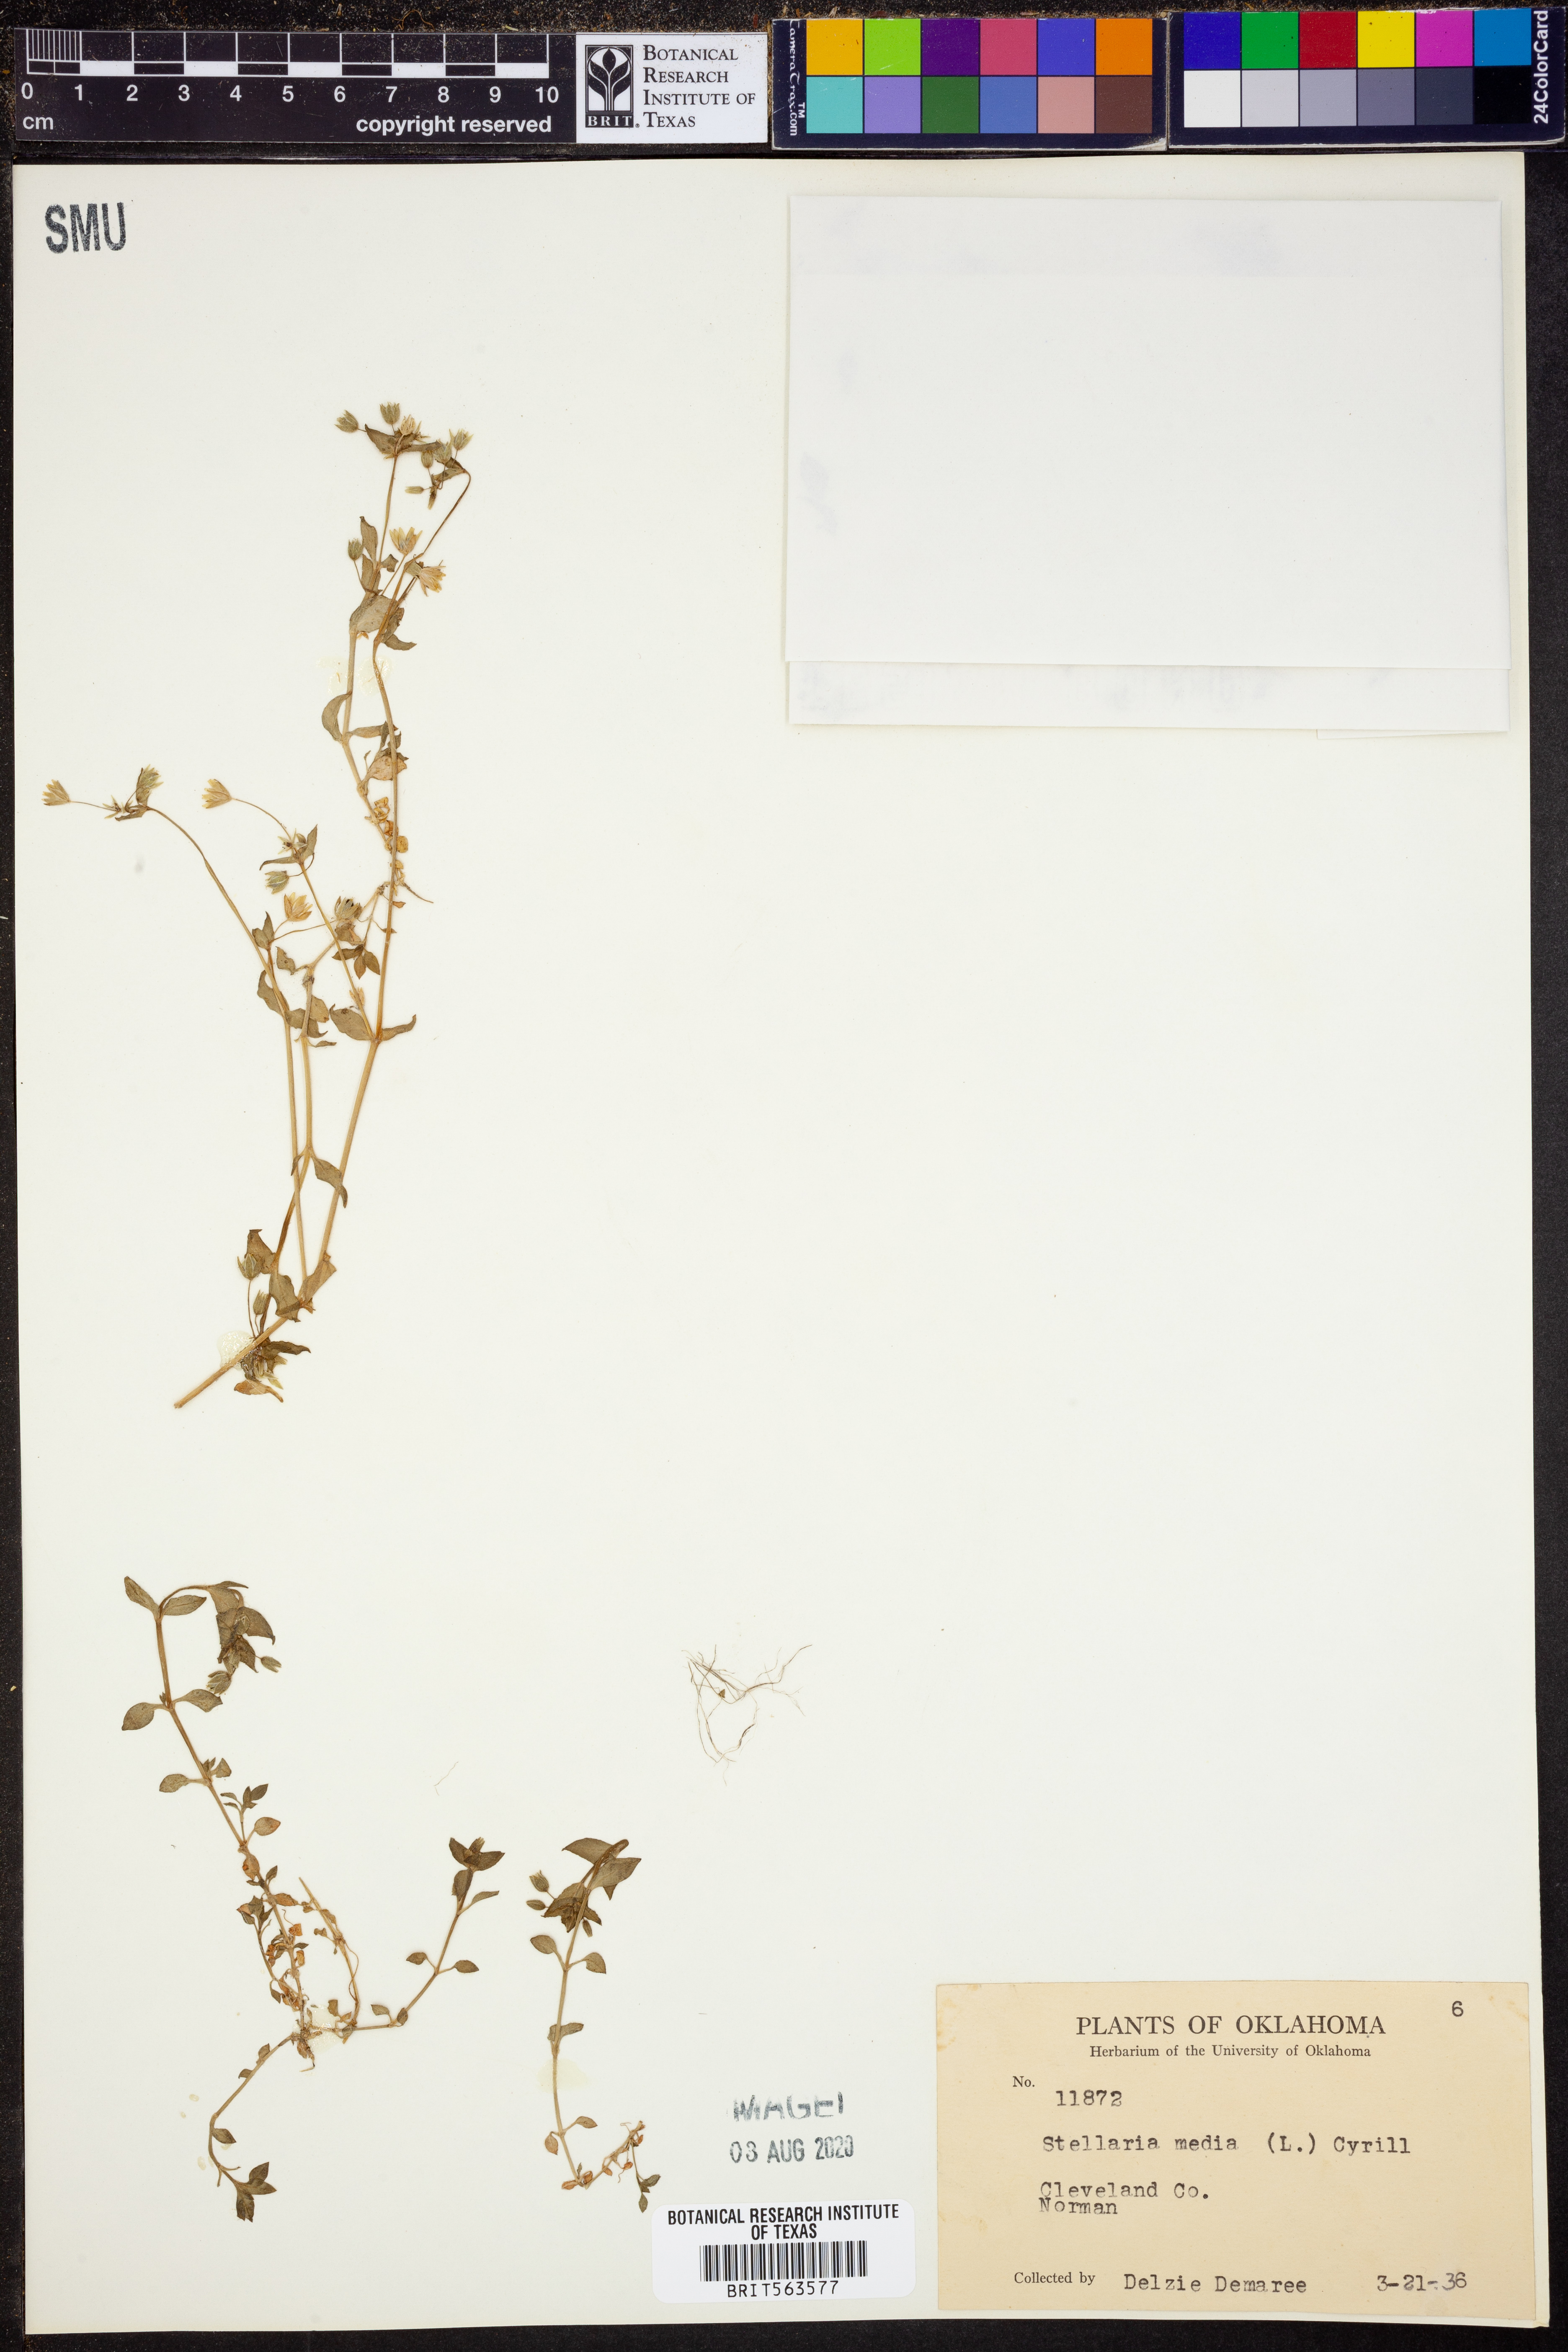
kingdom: Plantae
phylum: Tracheophyta
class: Magnoliopsida
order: Caryophyllales
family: Caryophyllaceae
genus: Stellaria
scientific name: Stellaria media
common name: Common chickweed
